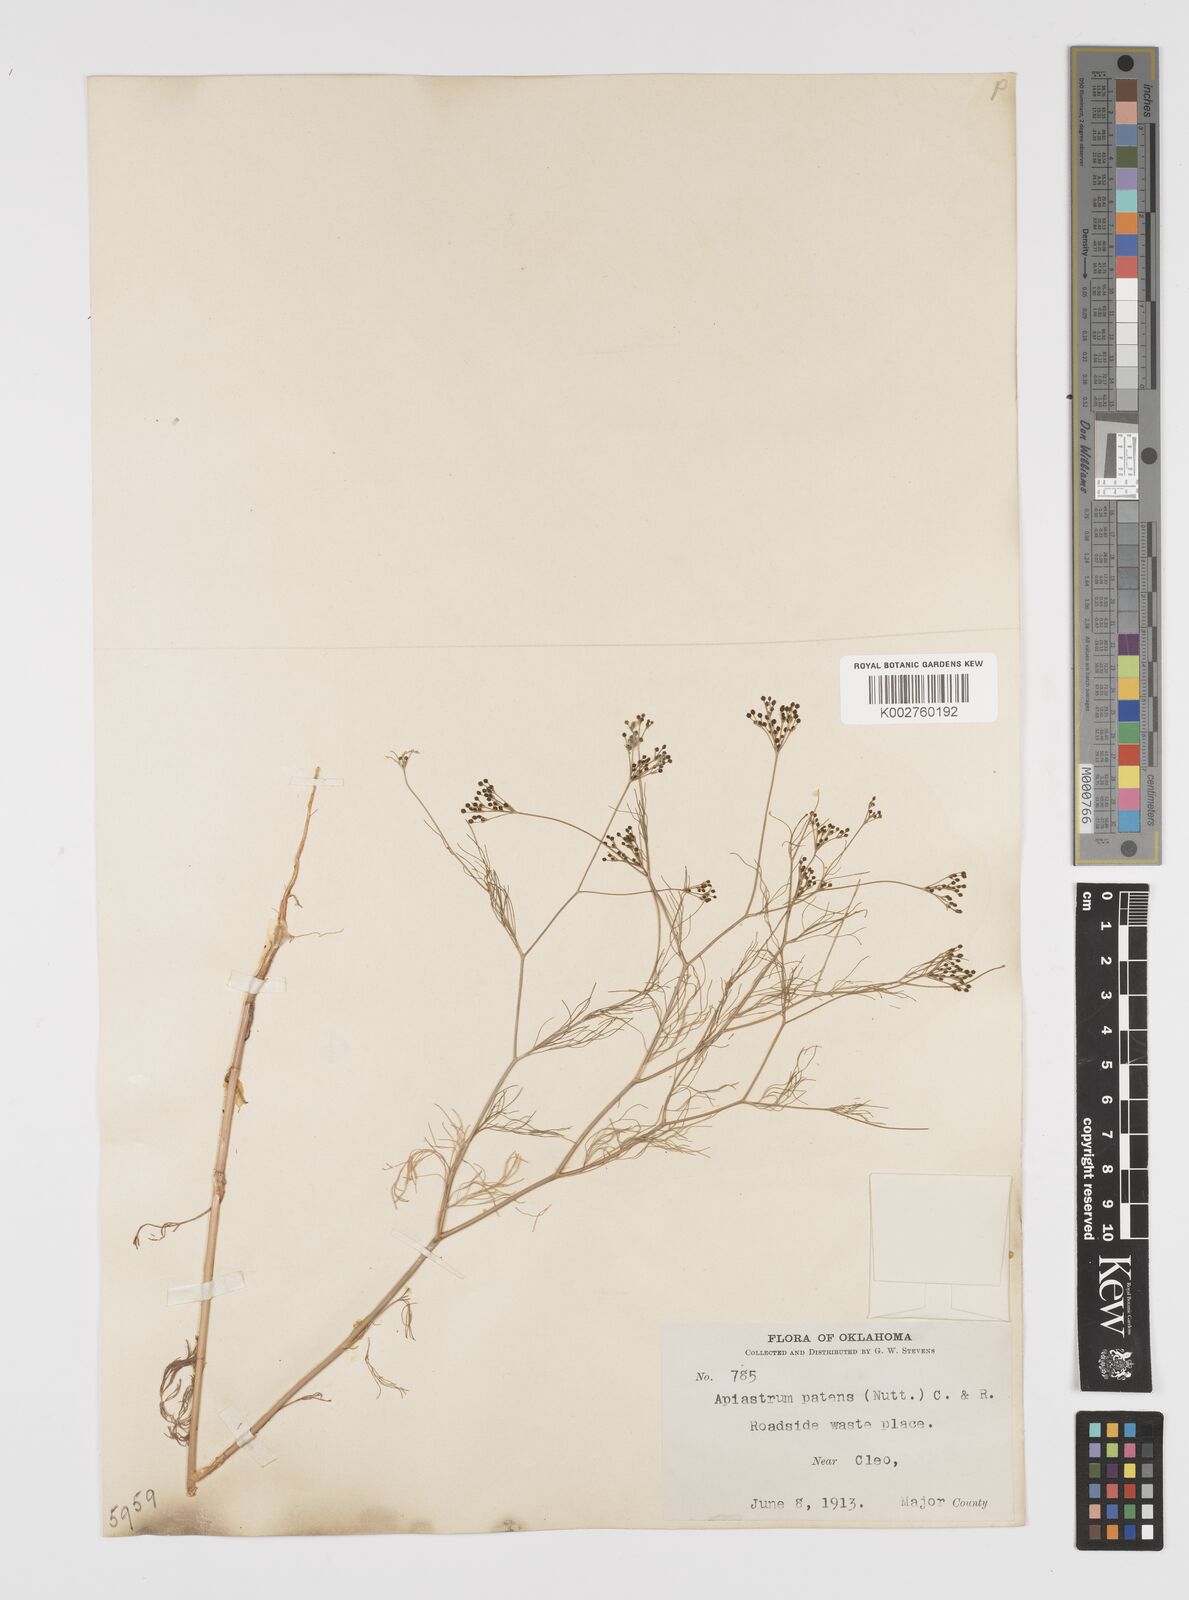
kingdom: Plantae
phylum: Tracheophyta
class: Magnoliopsida
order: Apiales
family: Apiaceae
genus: Spermolepis
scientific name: Spermolepis inermis
